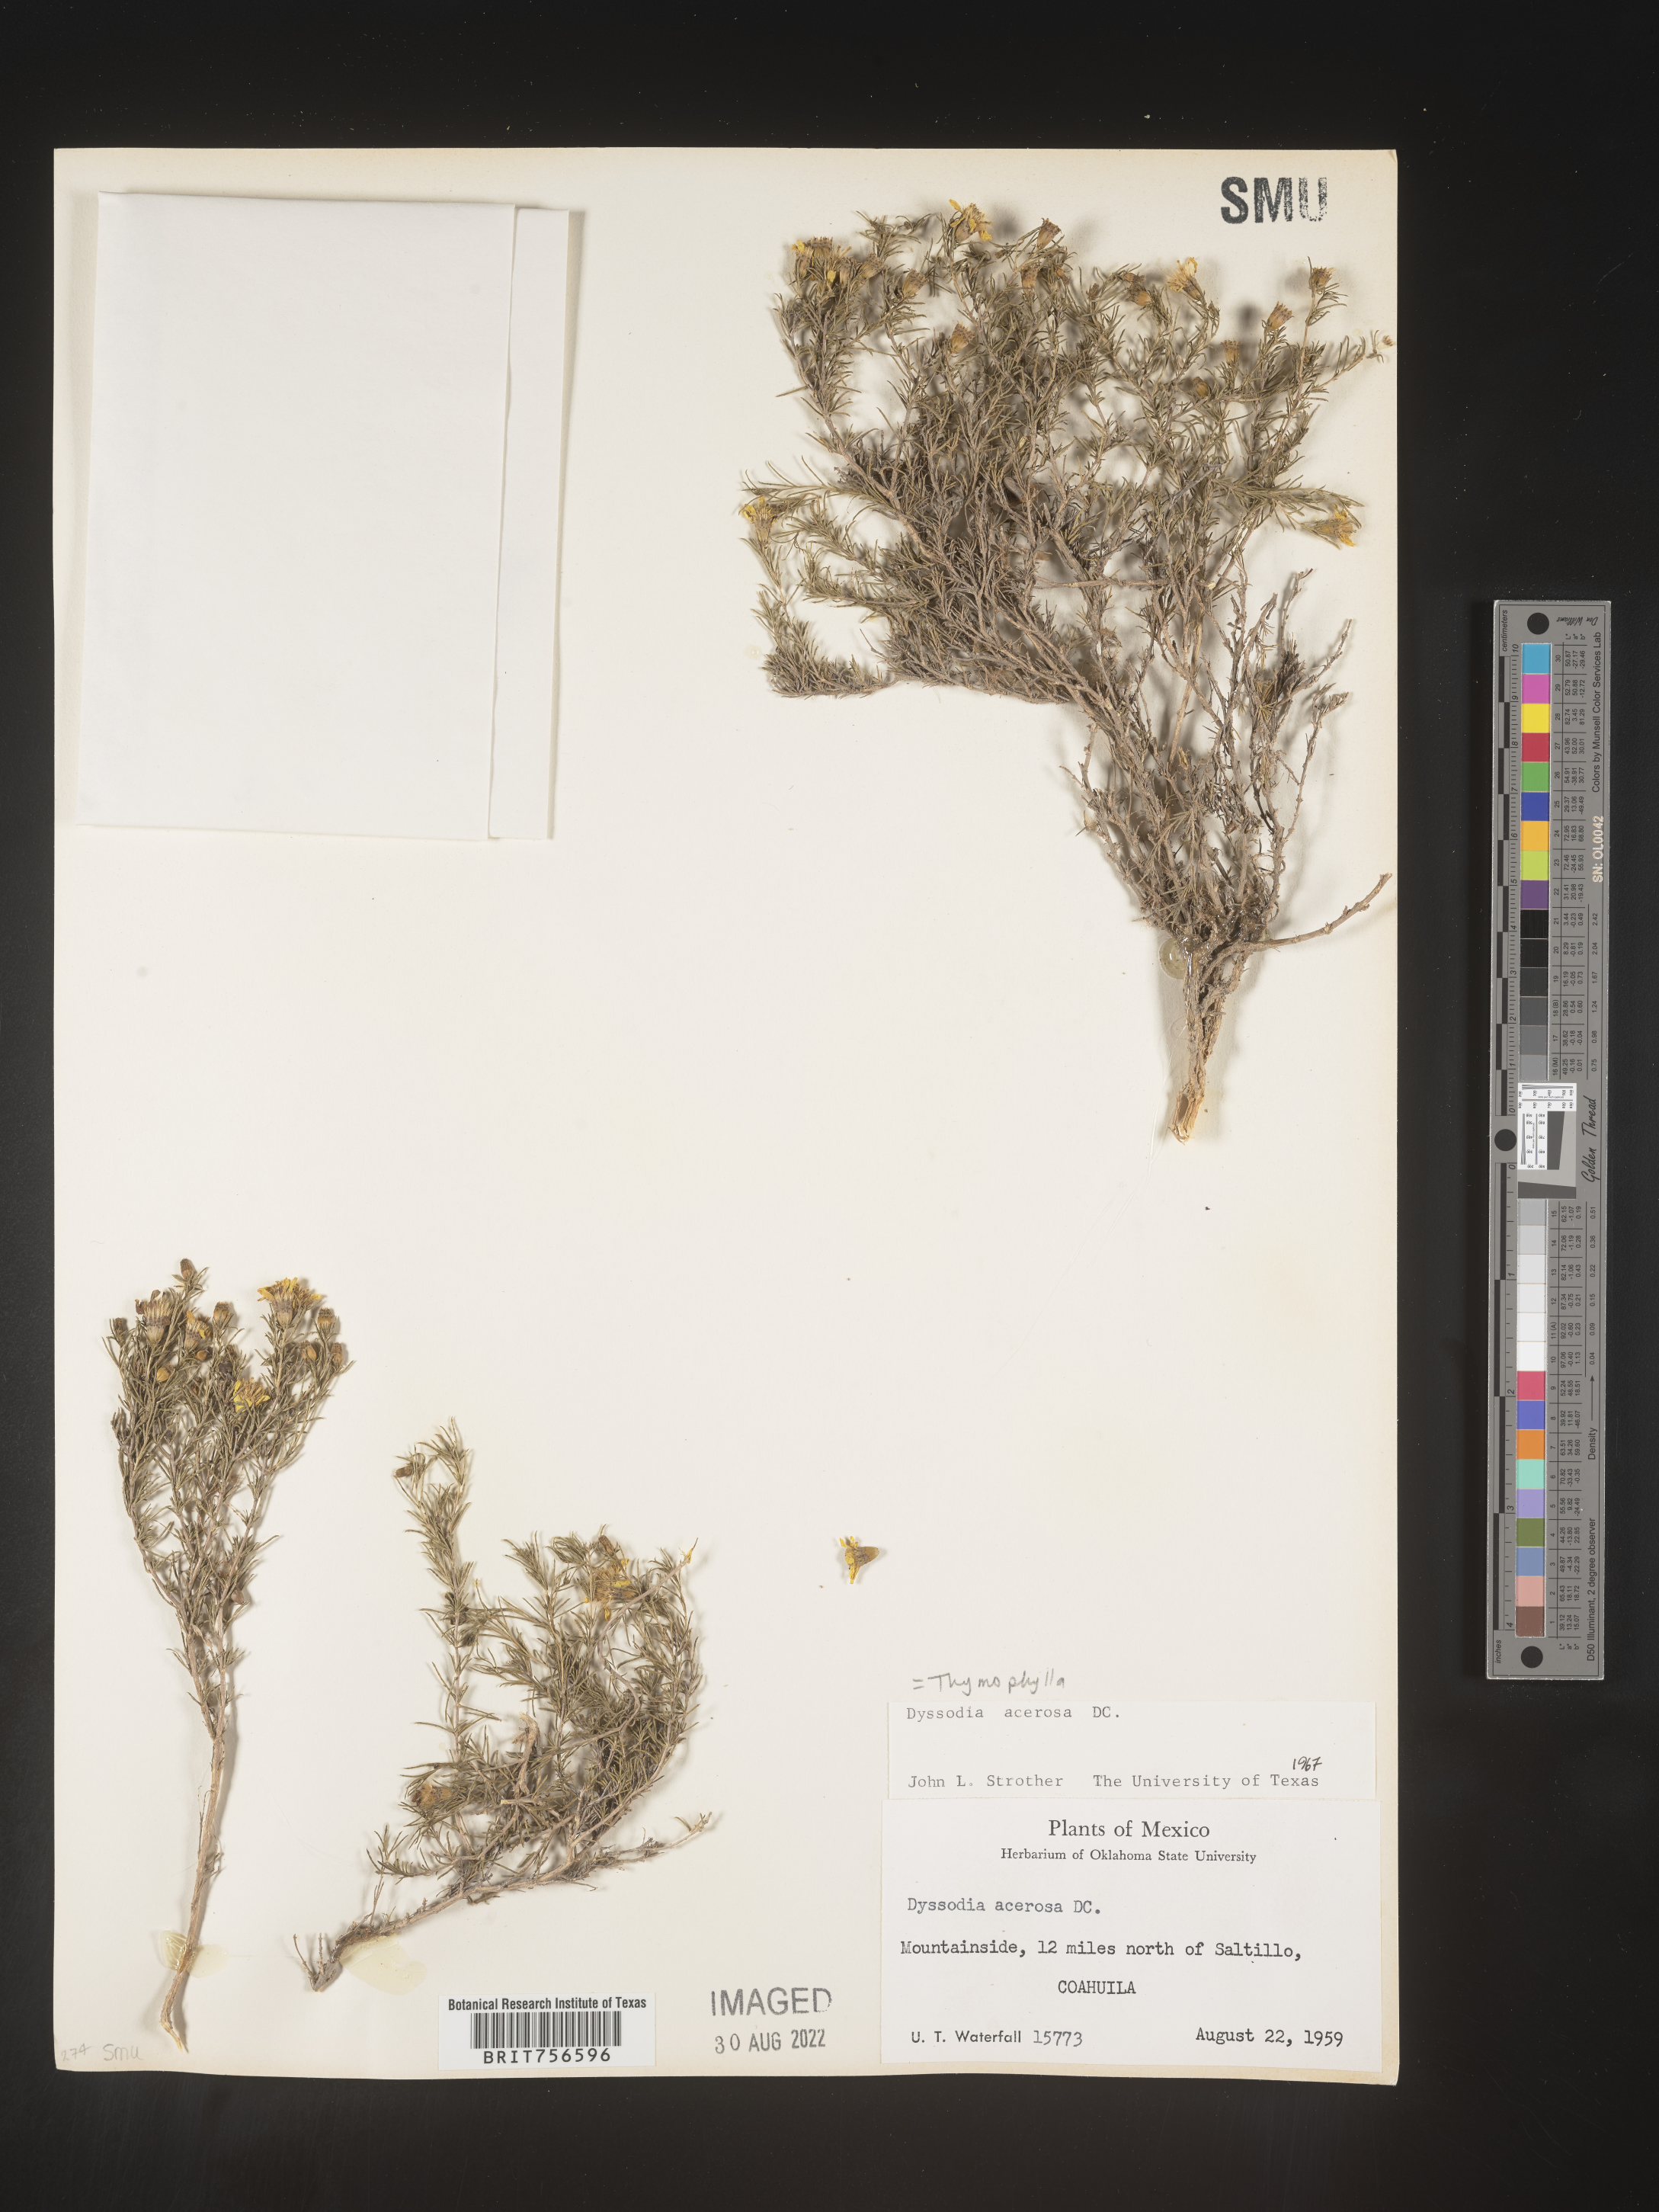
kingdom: Plantae
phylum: Tracheophyta
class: Magnoliopsida
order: Asterales
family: Asteraceae
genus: Thymophylla
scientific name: Thymophylla acerosa
